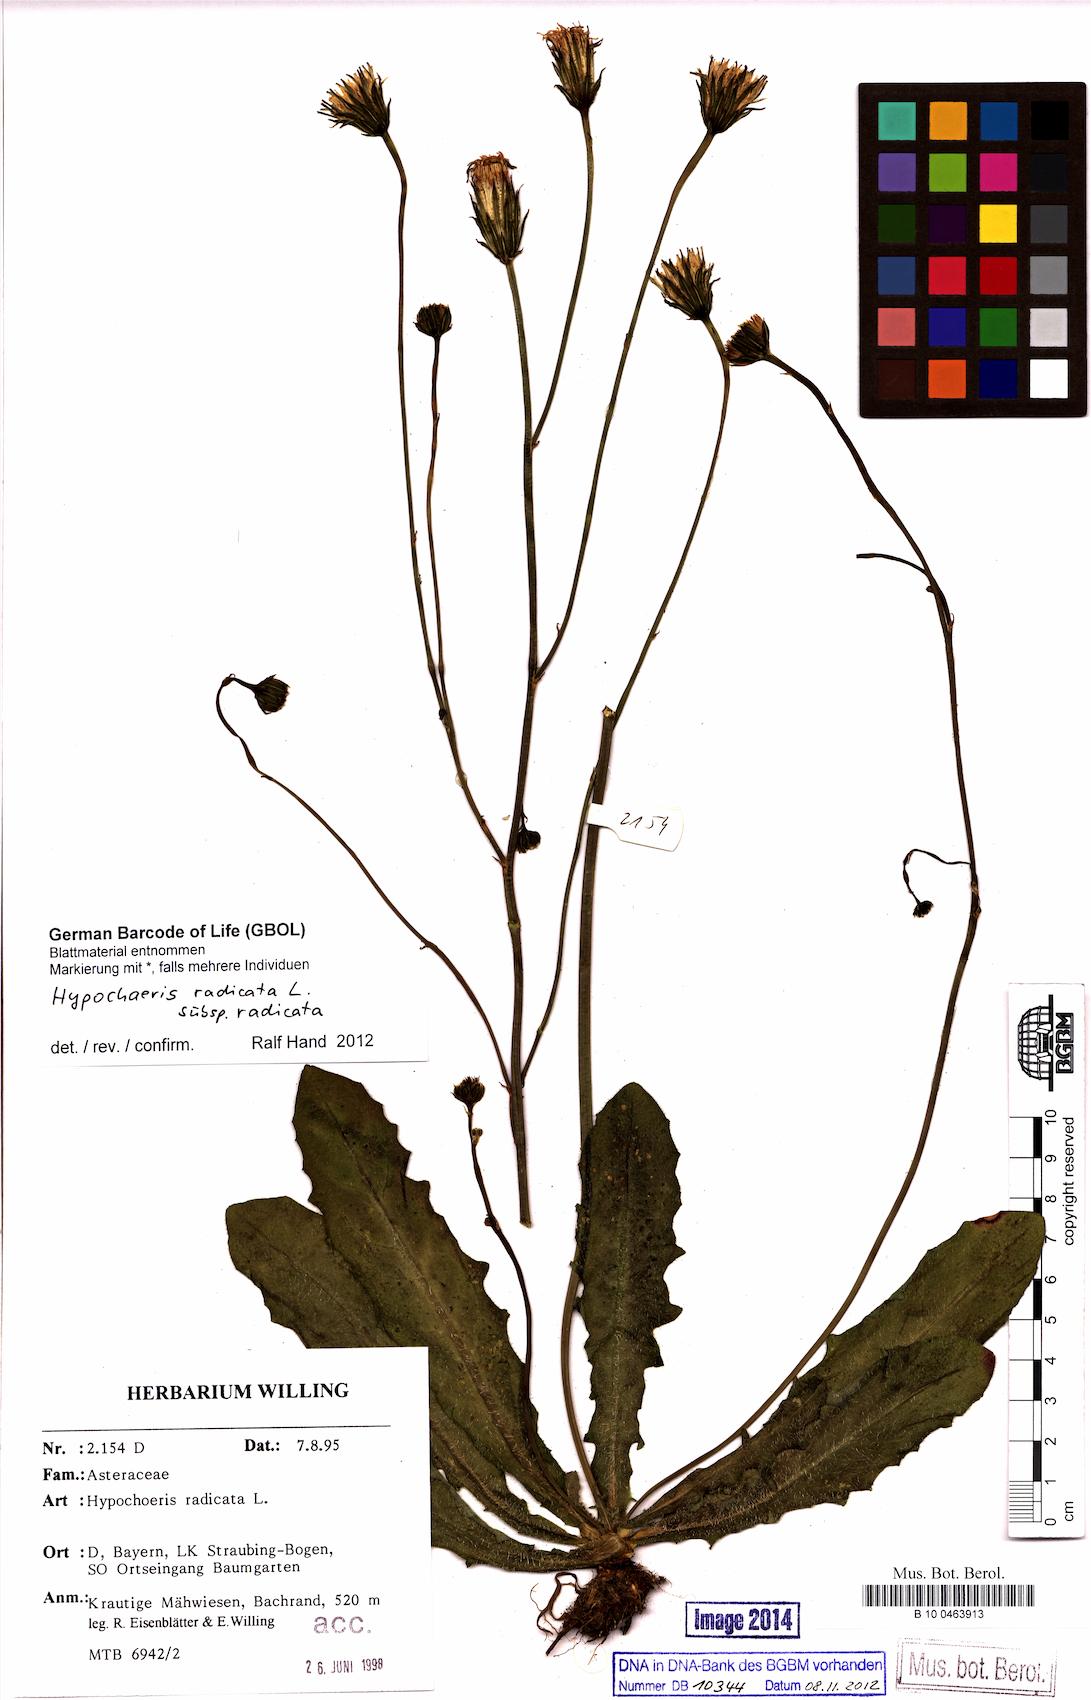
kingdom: Plantae
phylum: Tracheophyta
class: Magnoliopsida
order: Asterales
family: Asteraceae
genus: Hypochaeris
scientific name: Hypochaeris radicata
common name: Flatweed
